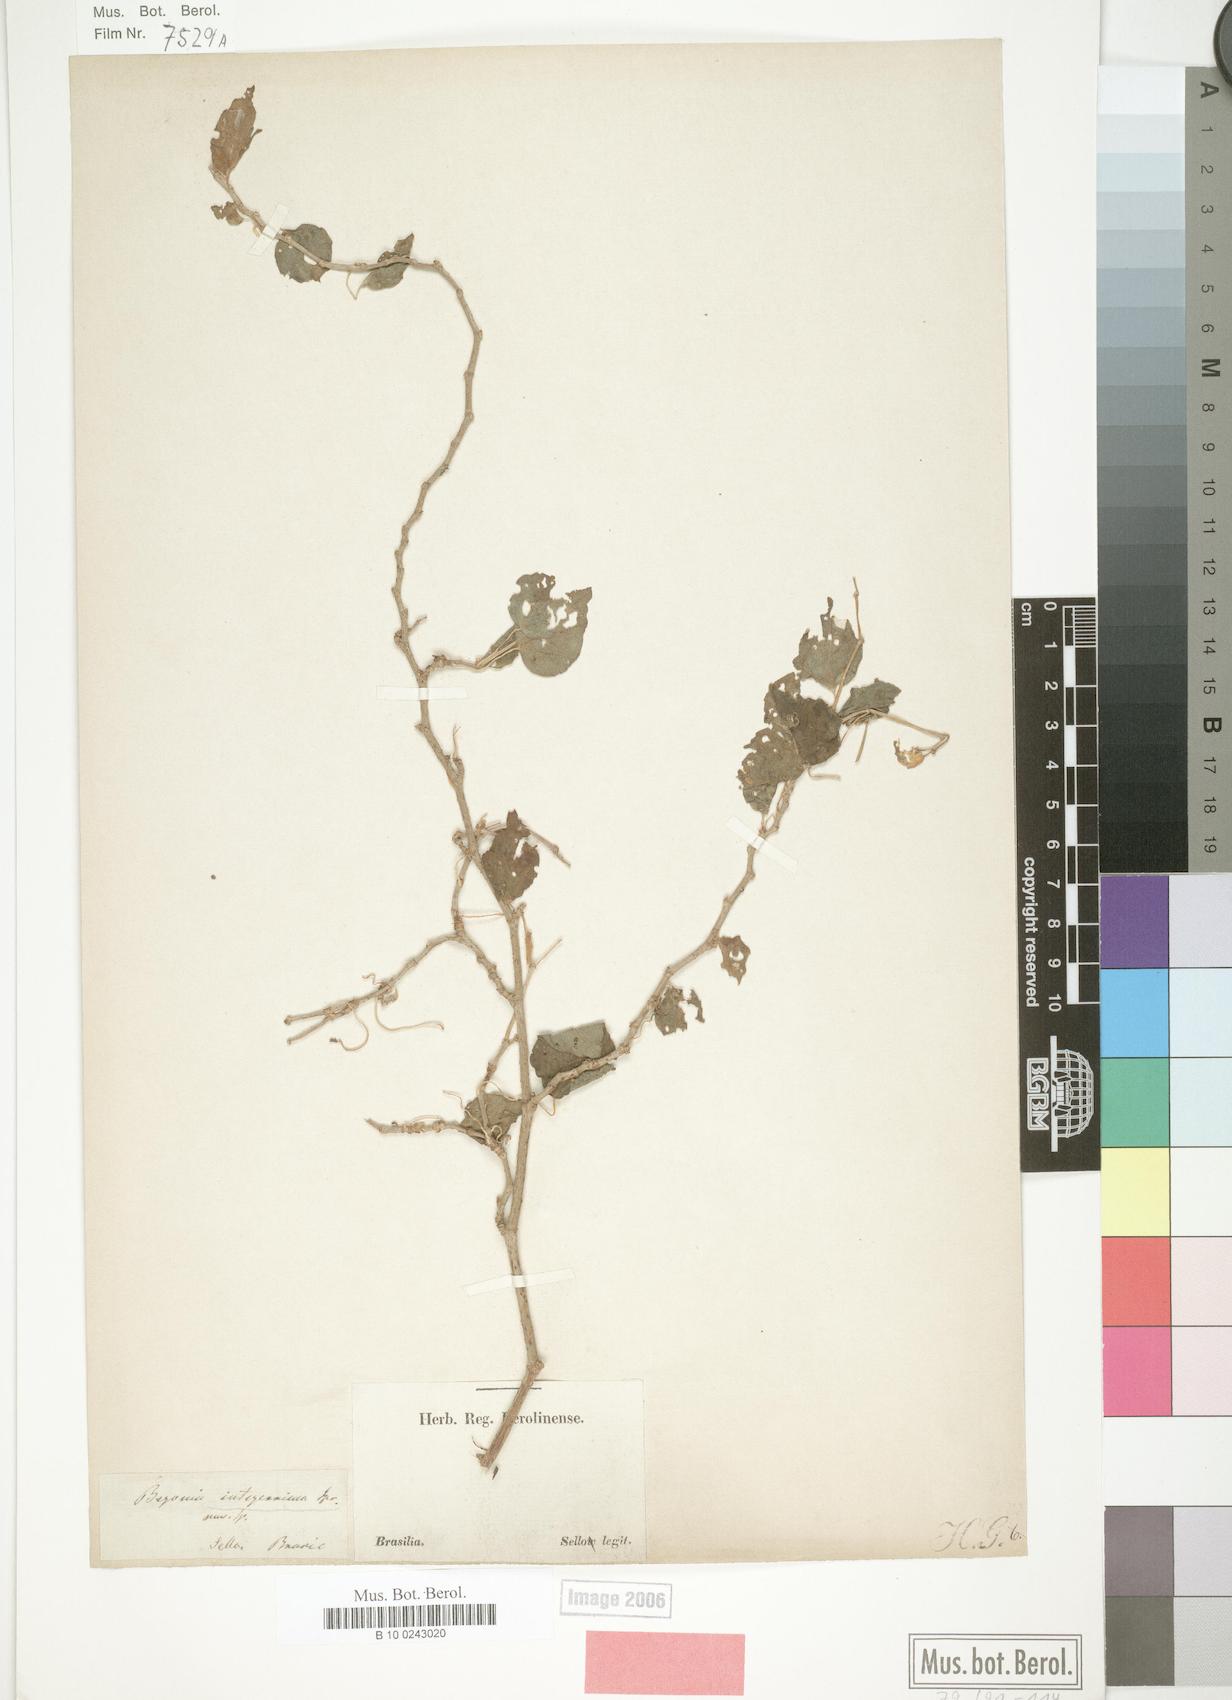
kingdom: Plantae
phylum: Tracheophyta
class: Magnoliopsida
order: Cucurbitales
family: Begoniaceae
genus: Begonia
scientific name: Begonia integerrima
